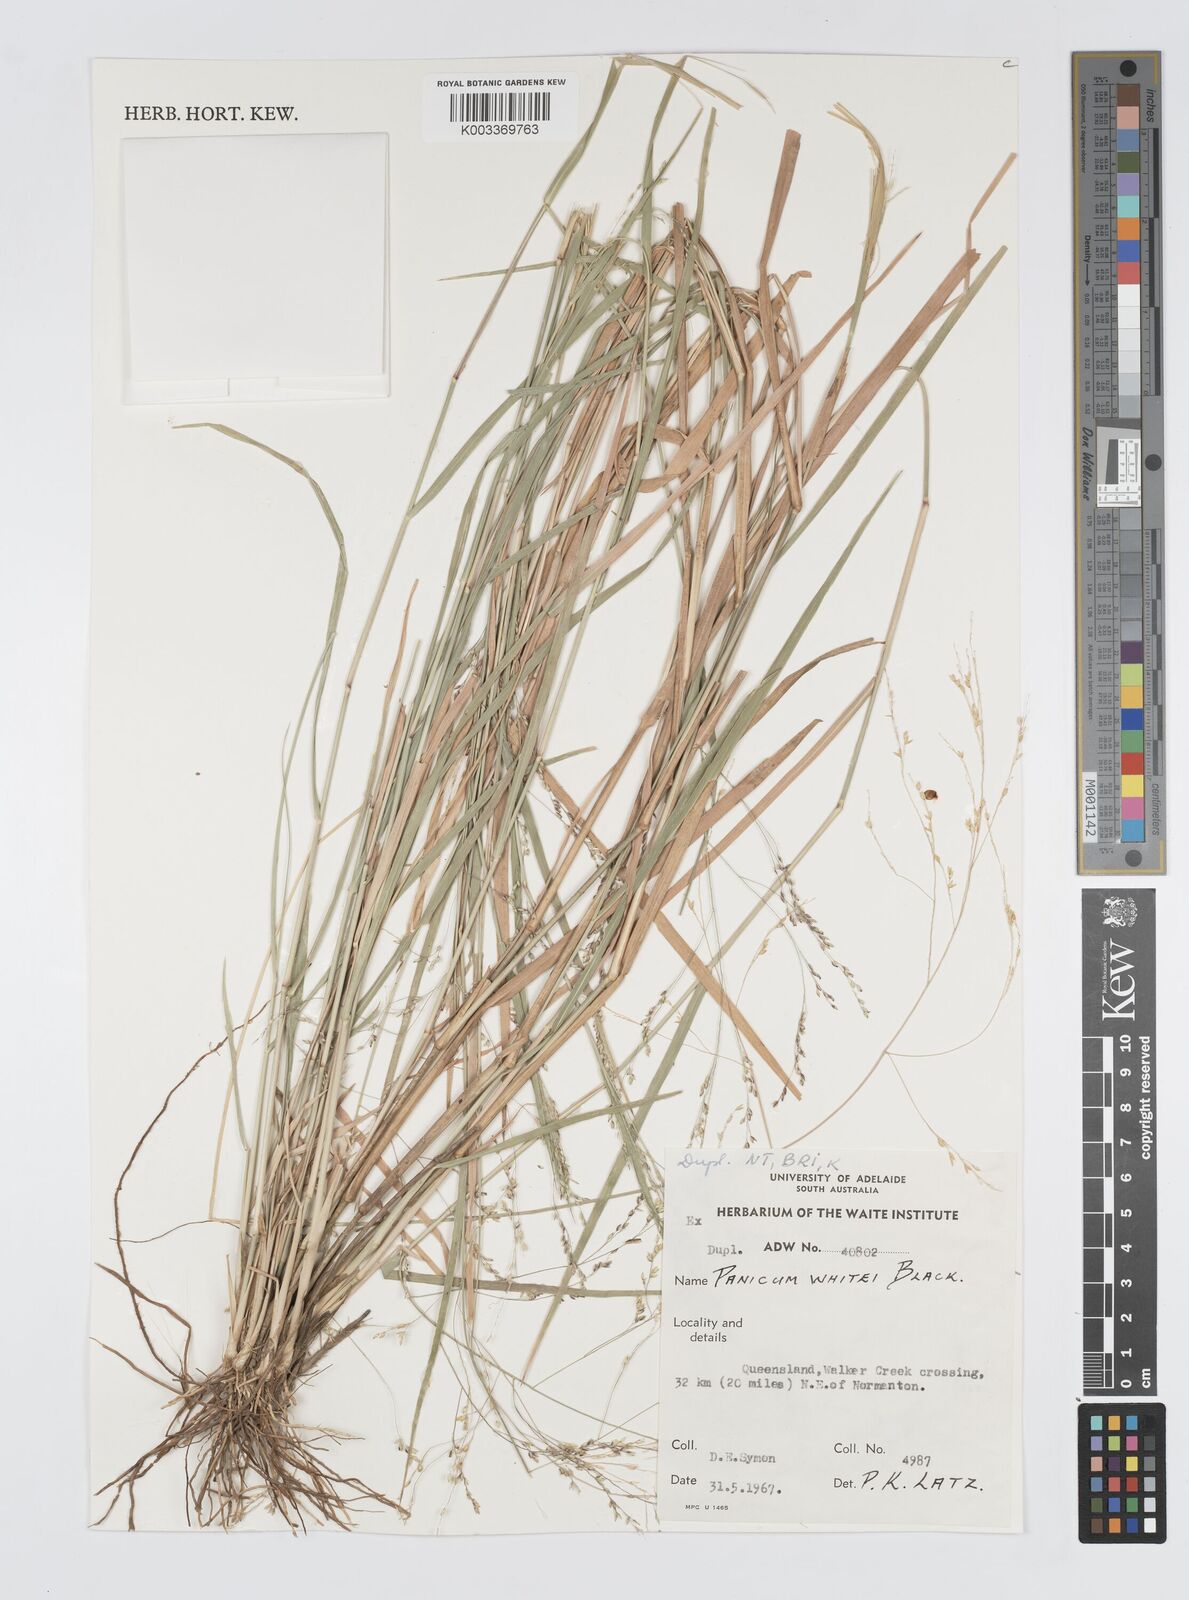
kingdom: Plantae
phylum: Tracheophyta
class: Liliopsida
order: Poales
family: Poaceae
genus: Panicum
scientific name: Panicum laevinode
